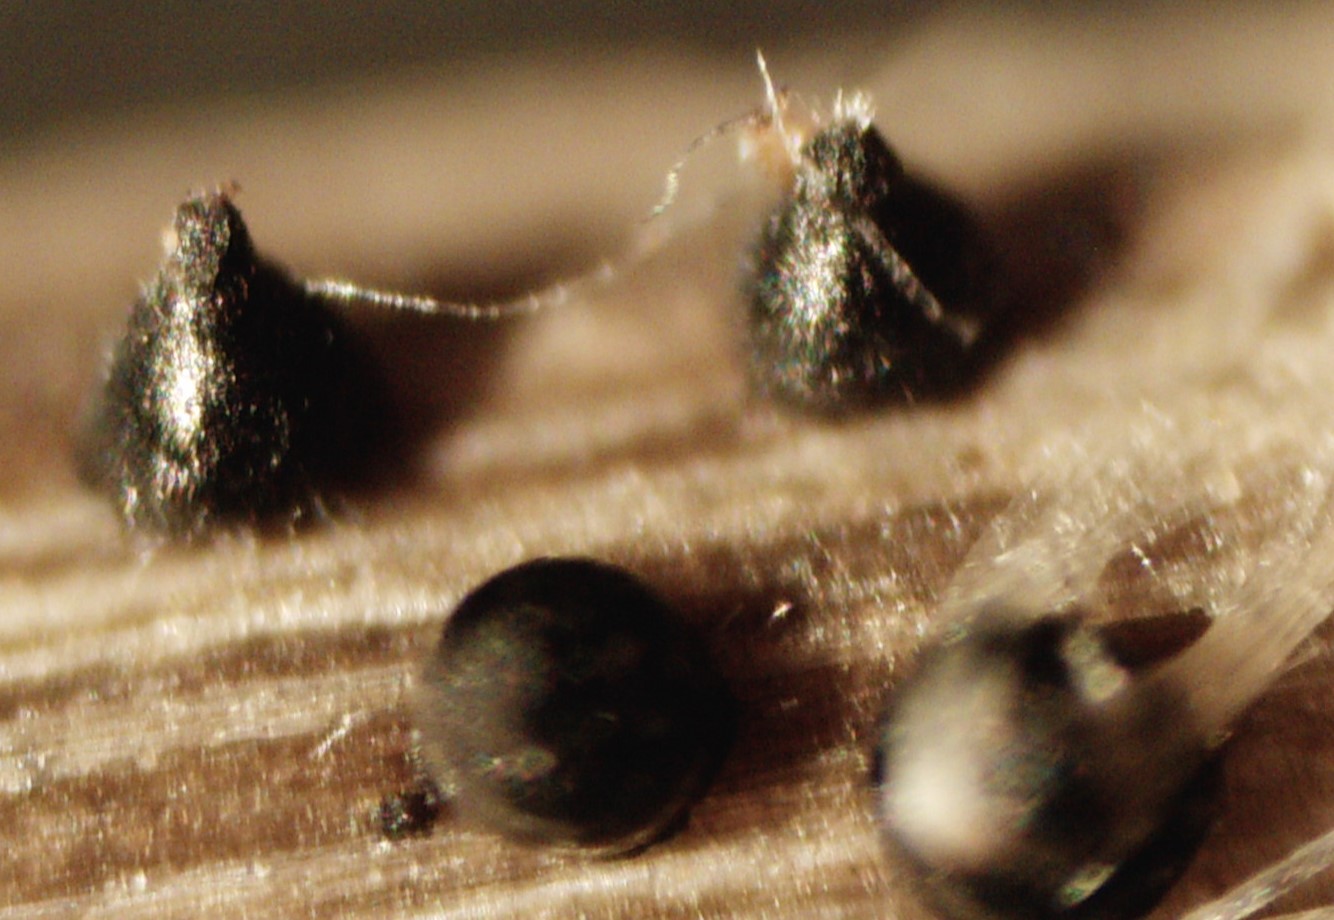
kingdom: Fungi
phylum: Ascomycota
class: Dothideomycetes
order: Pleosporales
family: Leptosphaeriaceae
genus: Leptosphaeria
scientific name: Leptosphaeria acuta
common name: spids kulkegle
